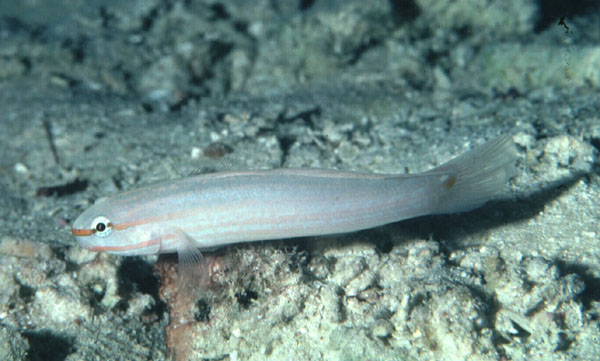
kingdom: Animalia
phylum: Chordata
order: Perciformes
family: Gobiidae
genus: Amblygobius
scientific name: Amblygobius decussatus
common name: Crosshatch goby
